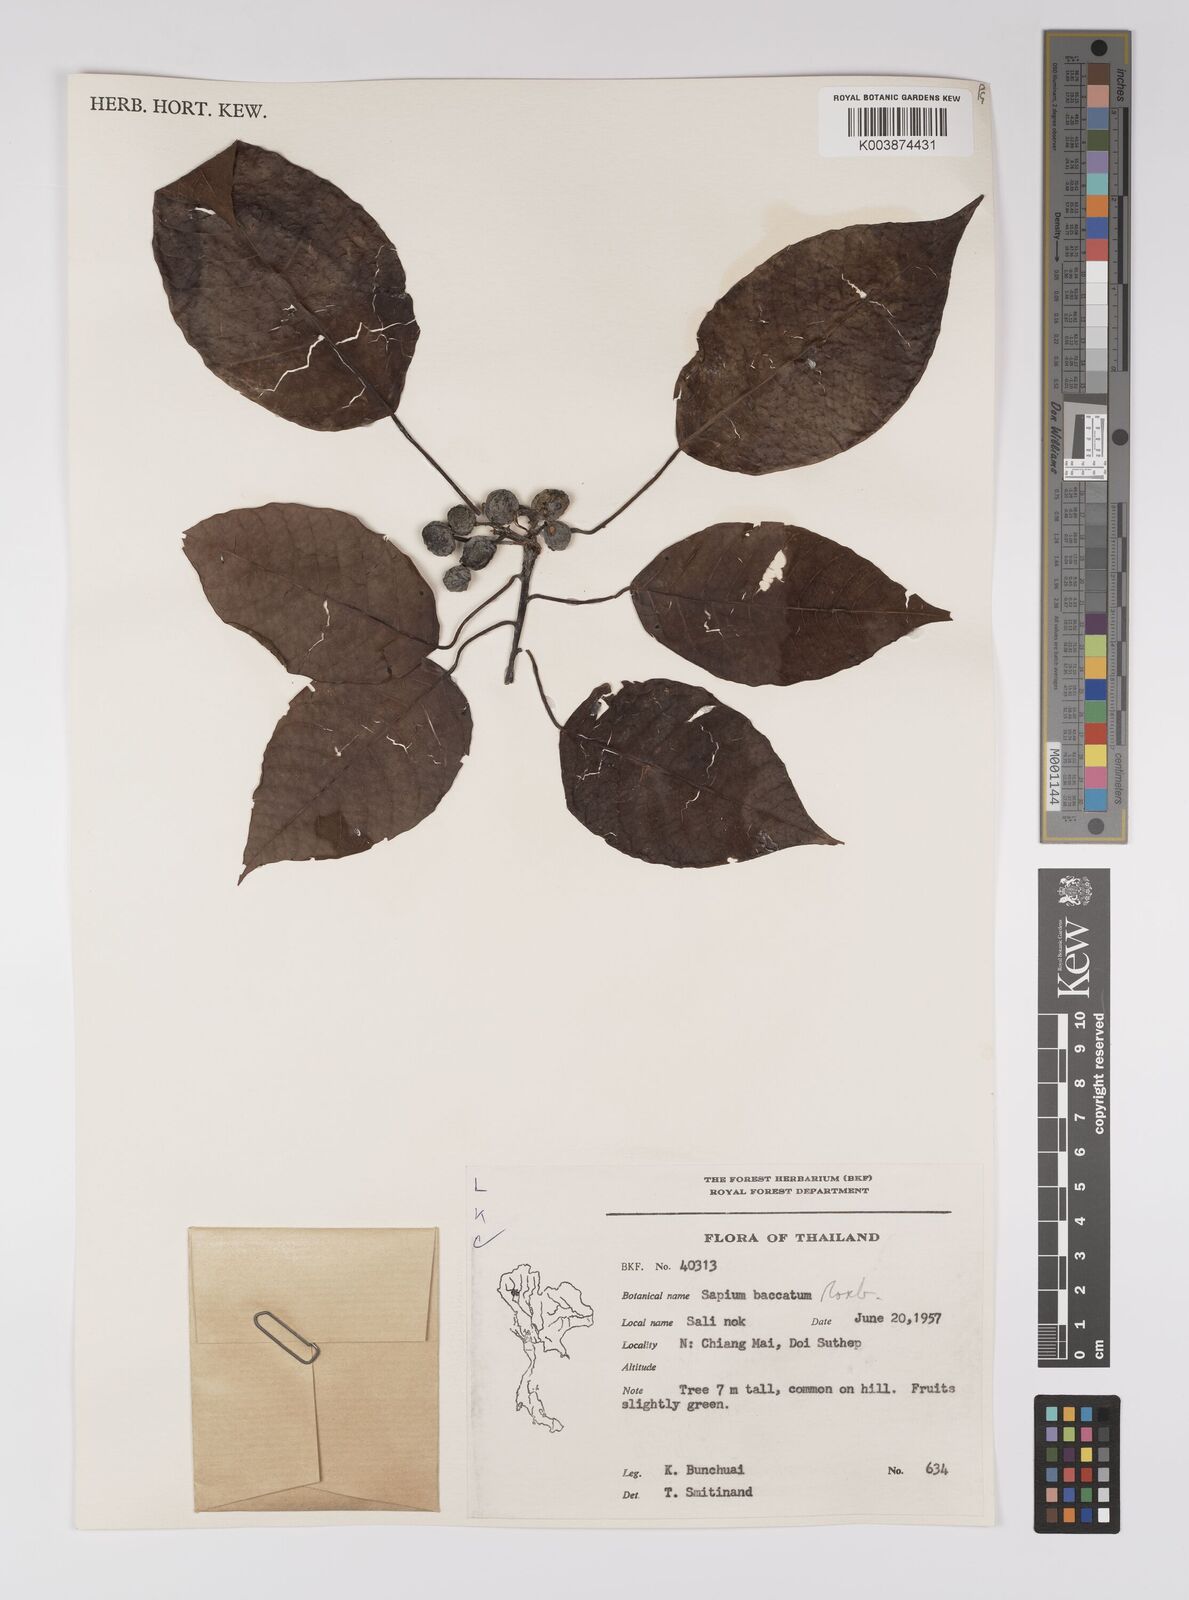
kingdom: Plantae
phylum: Tracheophyta
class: Magnoliopsida
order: Malpighiales
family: Euphorbiaceae
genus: Balakata
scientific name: Balakata baccata
